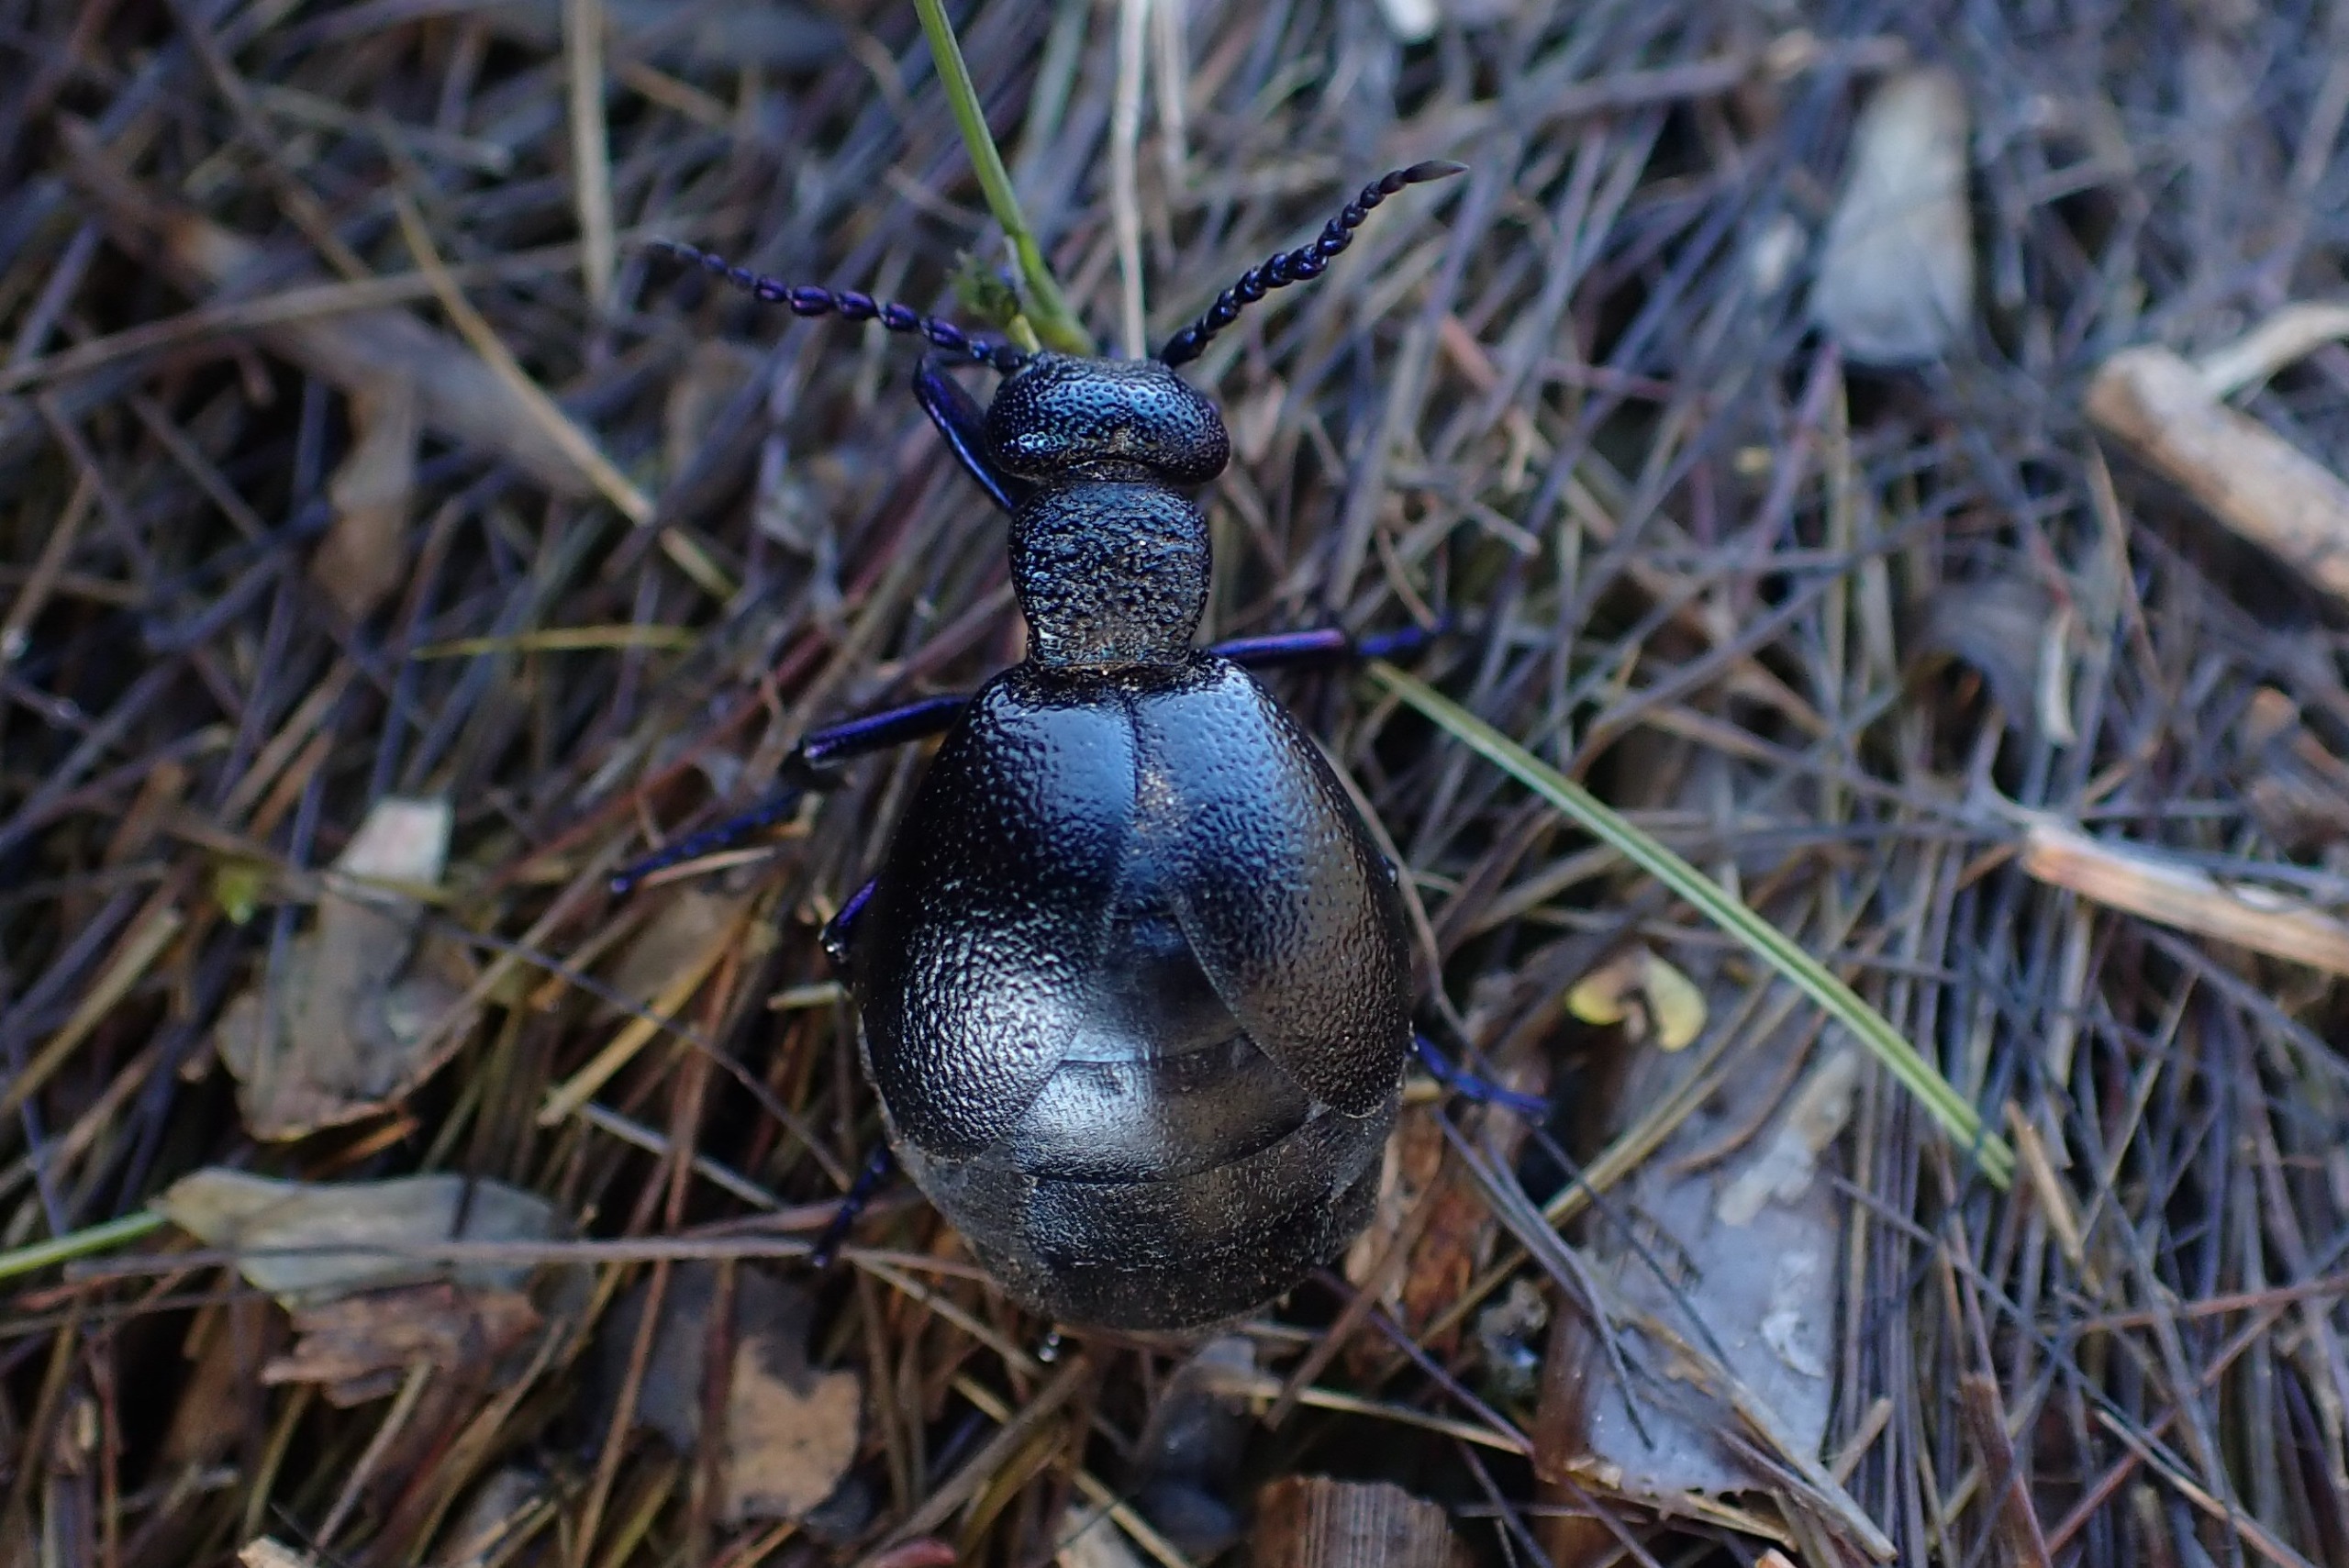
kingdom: Animalia
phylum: Arthropoda
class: Insecta
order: Coleoptera
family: Meloidae
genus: Meloe
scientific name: Meloe proscarabaeus
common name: Sort oliebille
